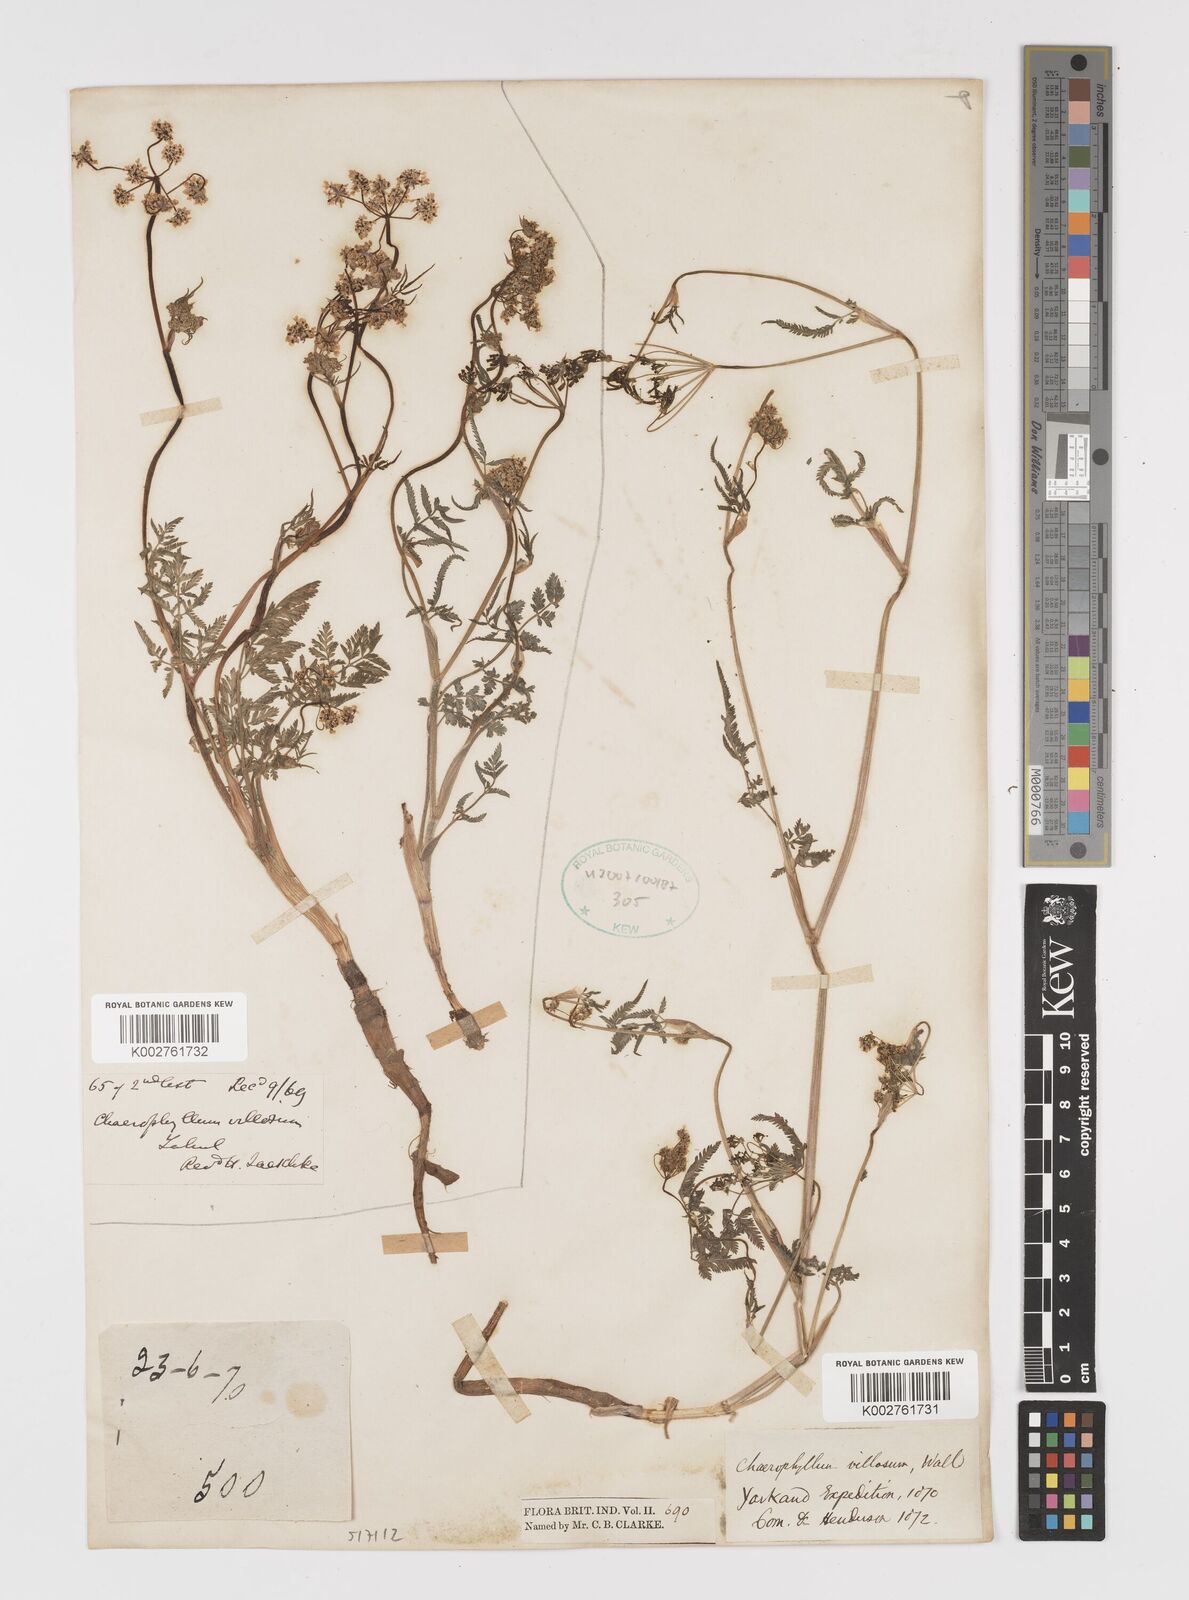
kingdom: Plantae
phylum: Tracheophyta
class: Magnoliopsida
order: Apiales
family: Apiaceae
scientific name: Apiaceae
